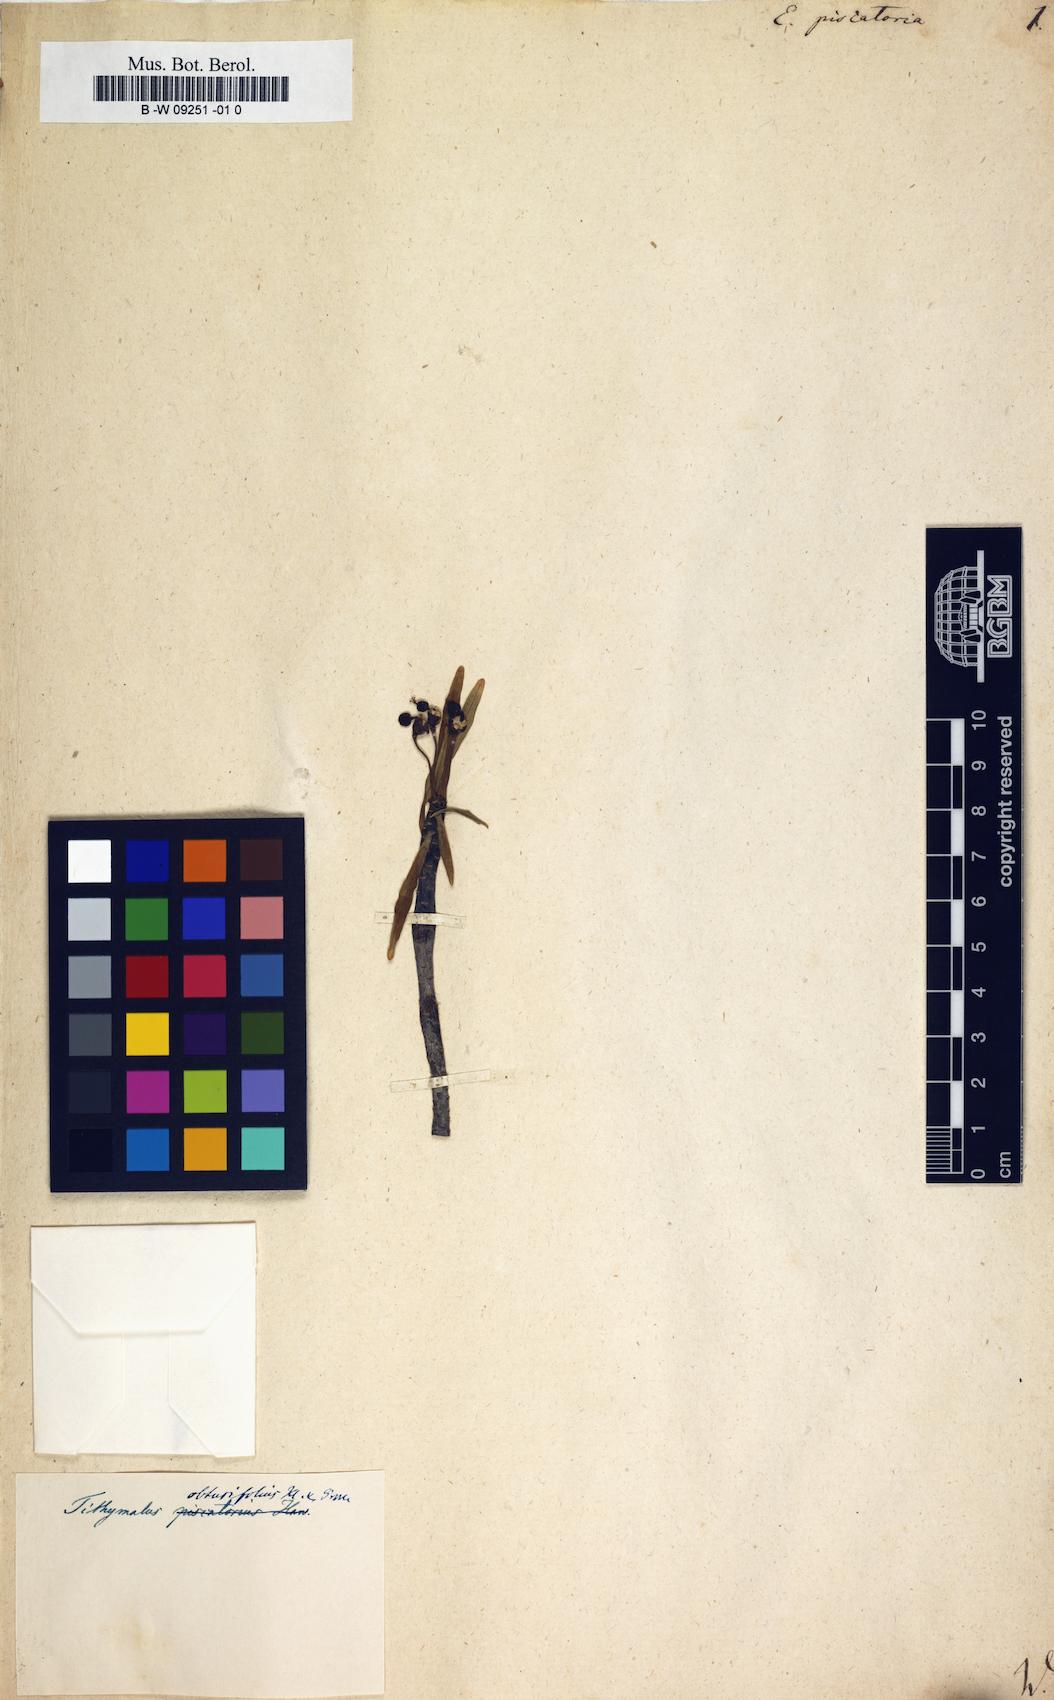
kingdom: Plantae
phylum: Tracheophyta
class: Magnoliopsida
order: Malpighiales
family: Euphorbiaceae
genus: Euphorbia
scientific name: Euphorbia piscatoria
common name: Fish-stunning spurge
